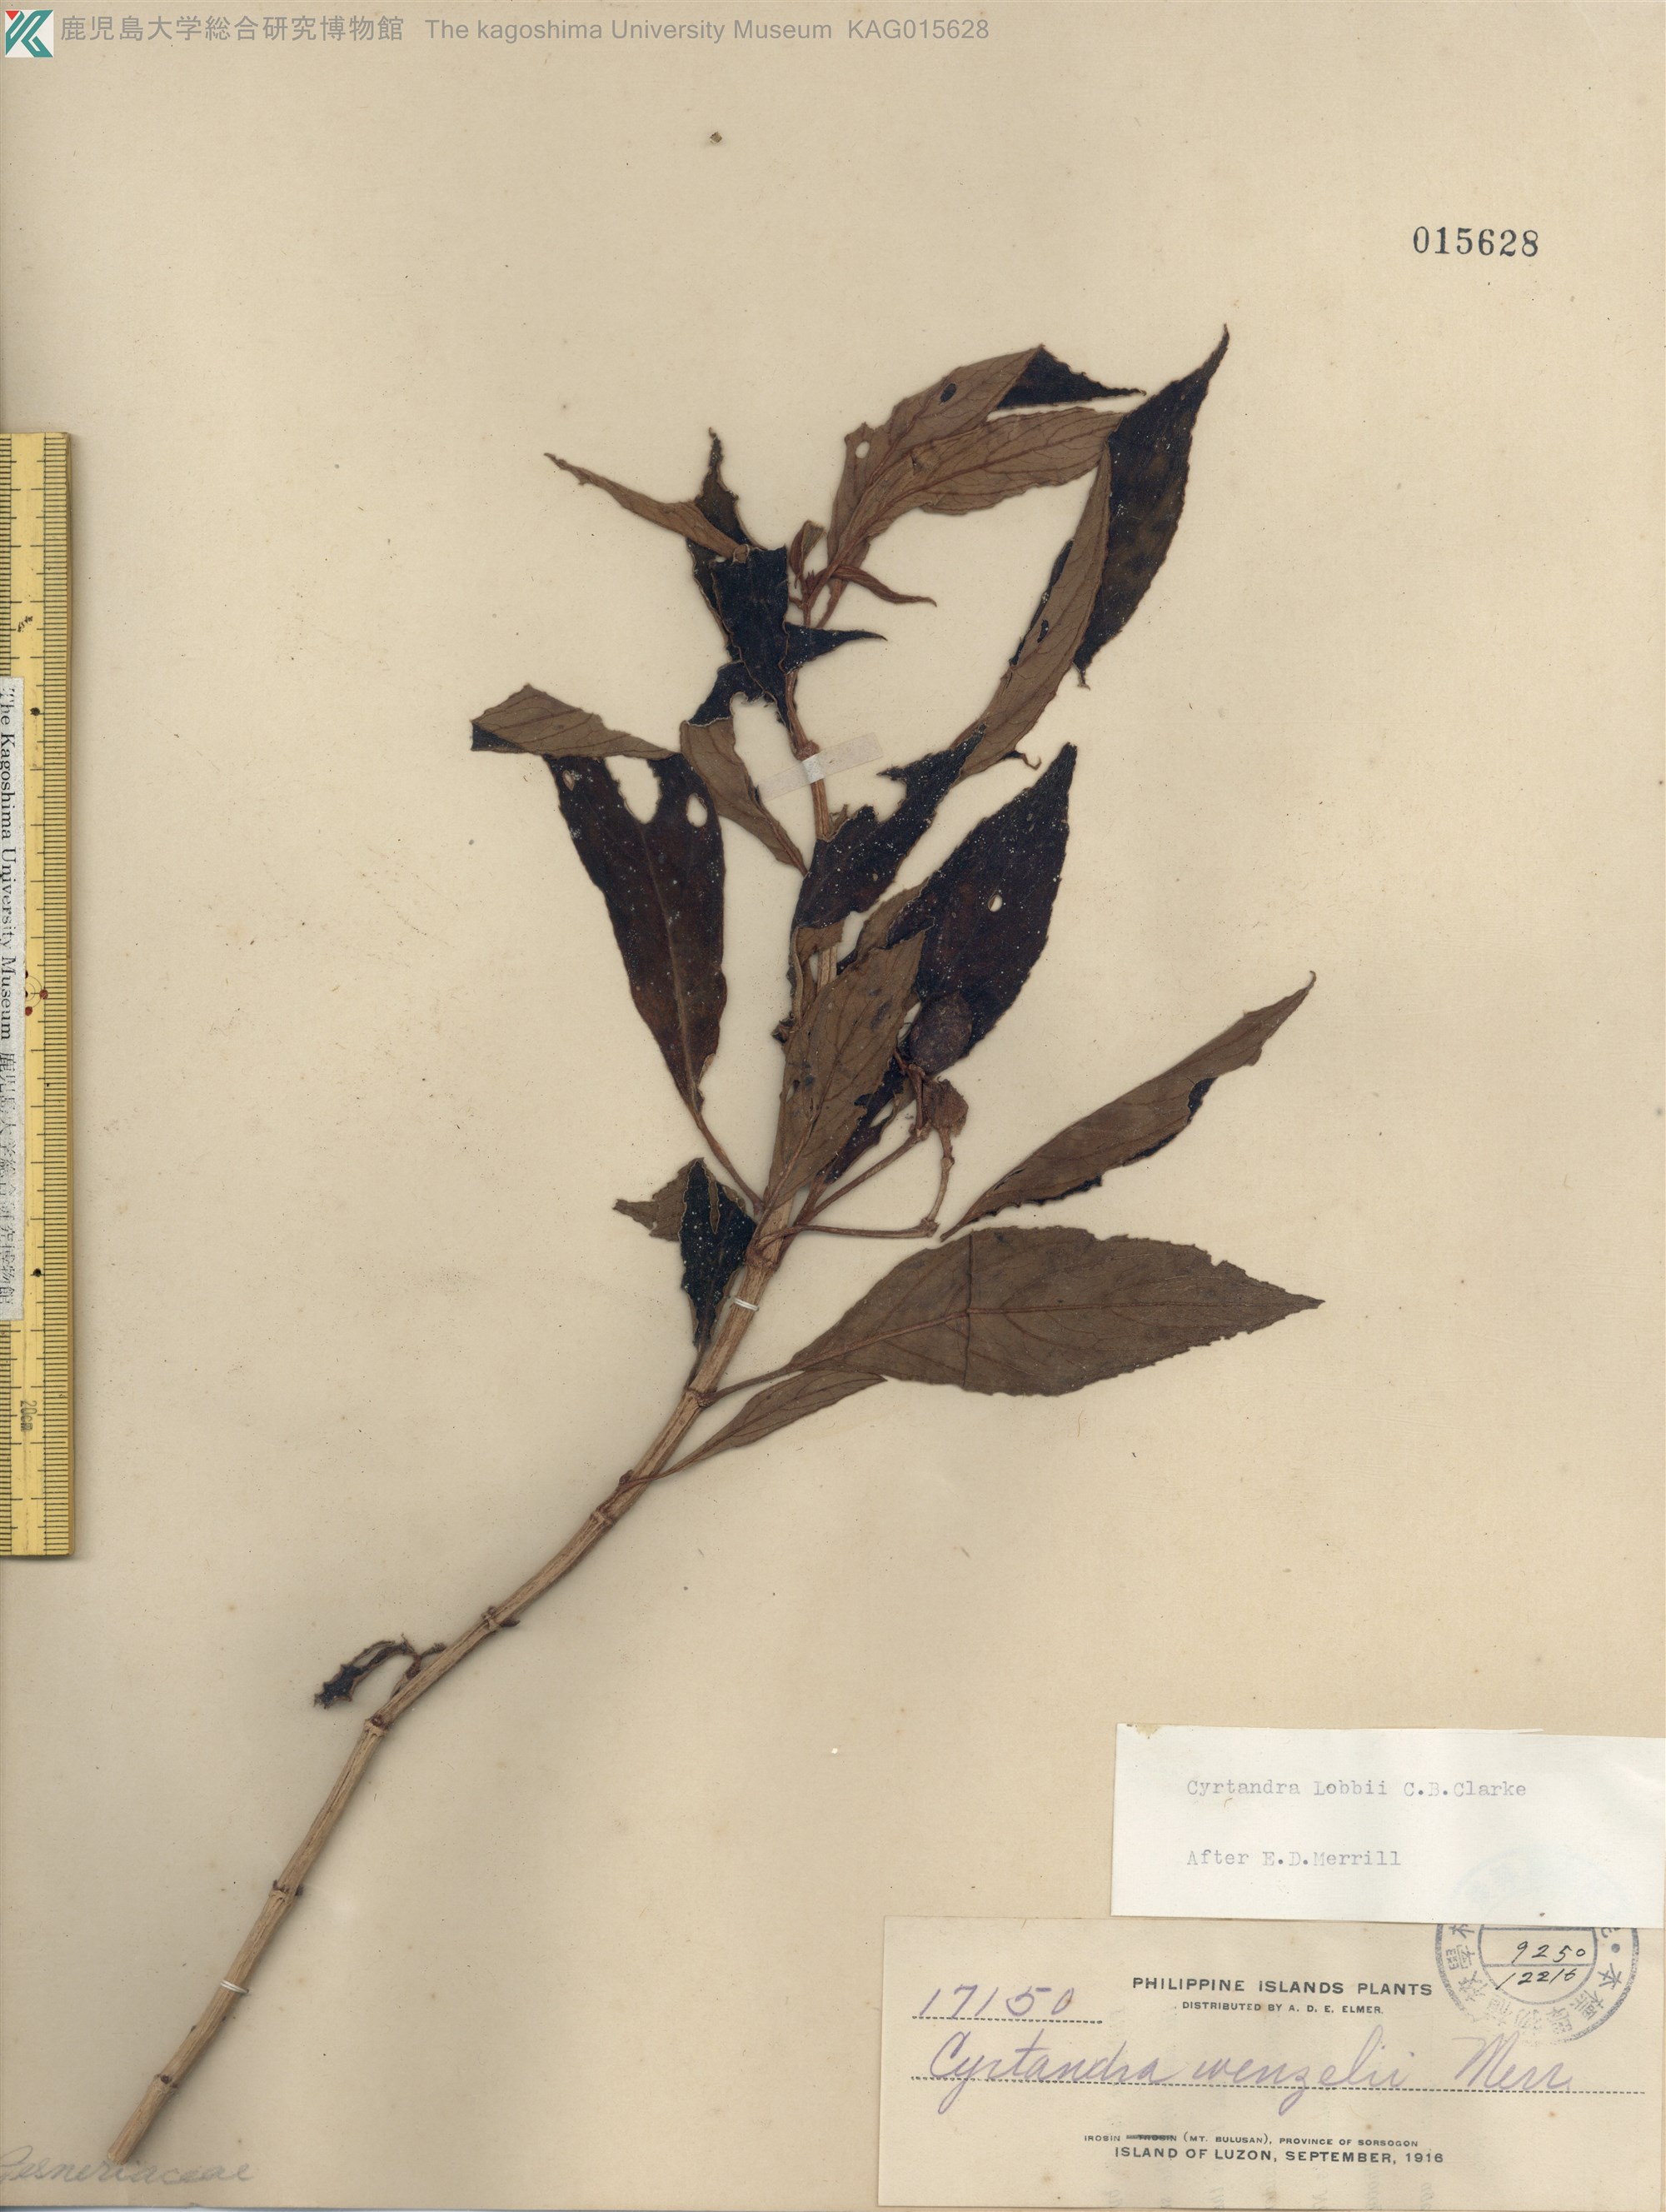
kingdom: Plantae
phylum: Tracheophyta
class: Magnoliopsida
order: Lamiales
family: Gesneriaceae
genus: Cyrtandra
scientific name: Cyrtandra lobbii
